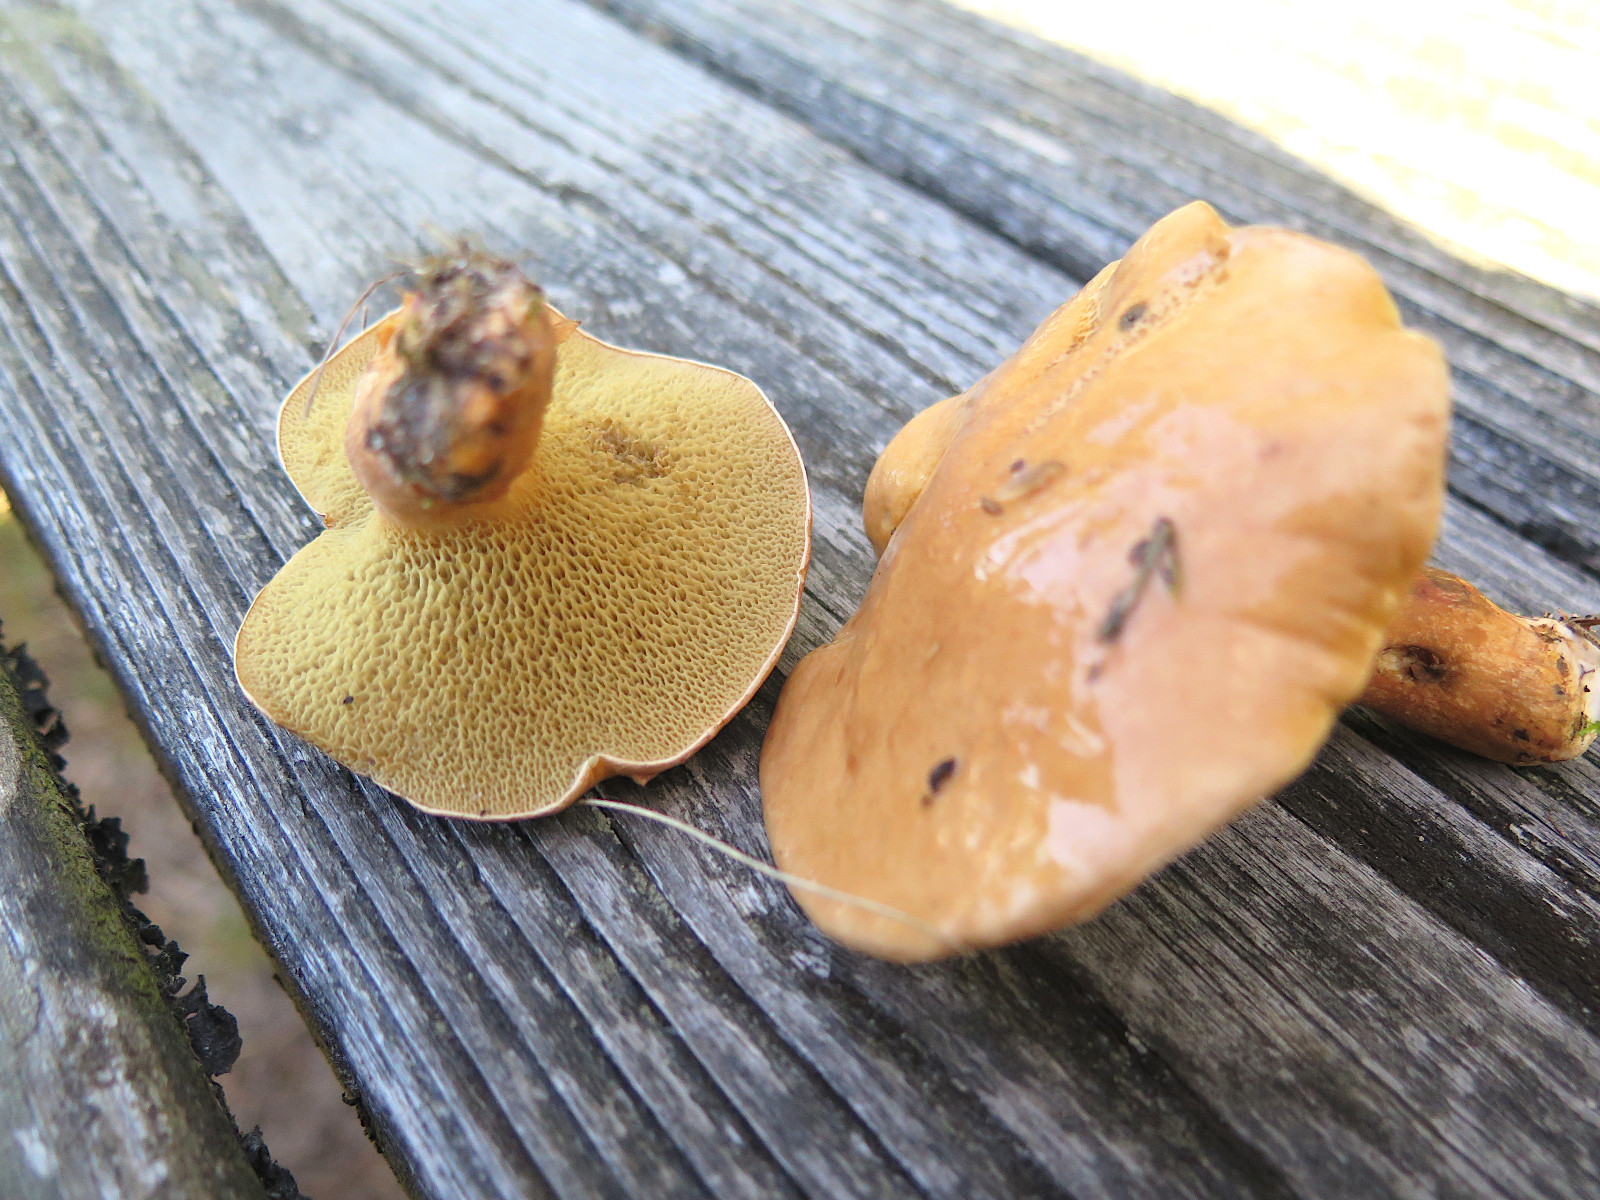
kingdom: Fungi
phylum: Basidiomycota
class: Agaricomycetes
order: Boletales
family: Suillaceae
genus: Suillus
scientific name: Suillus bovinus
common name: grovporet slimrørhat
